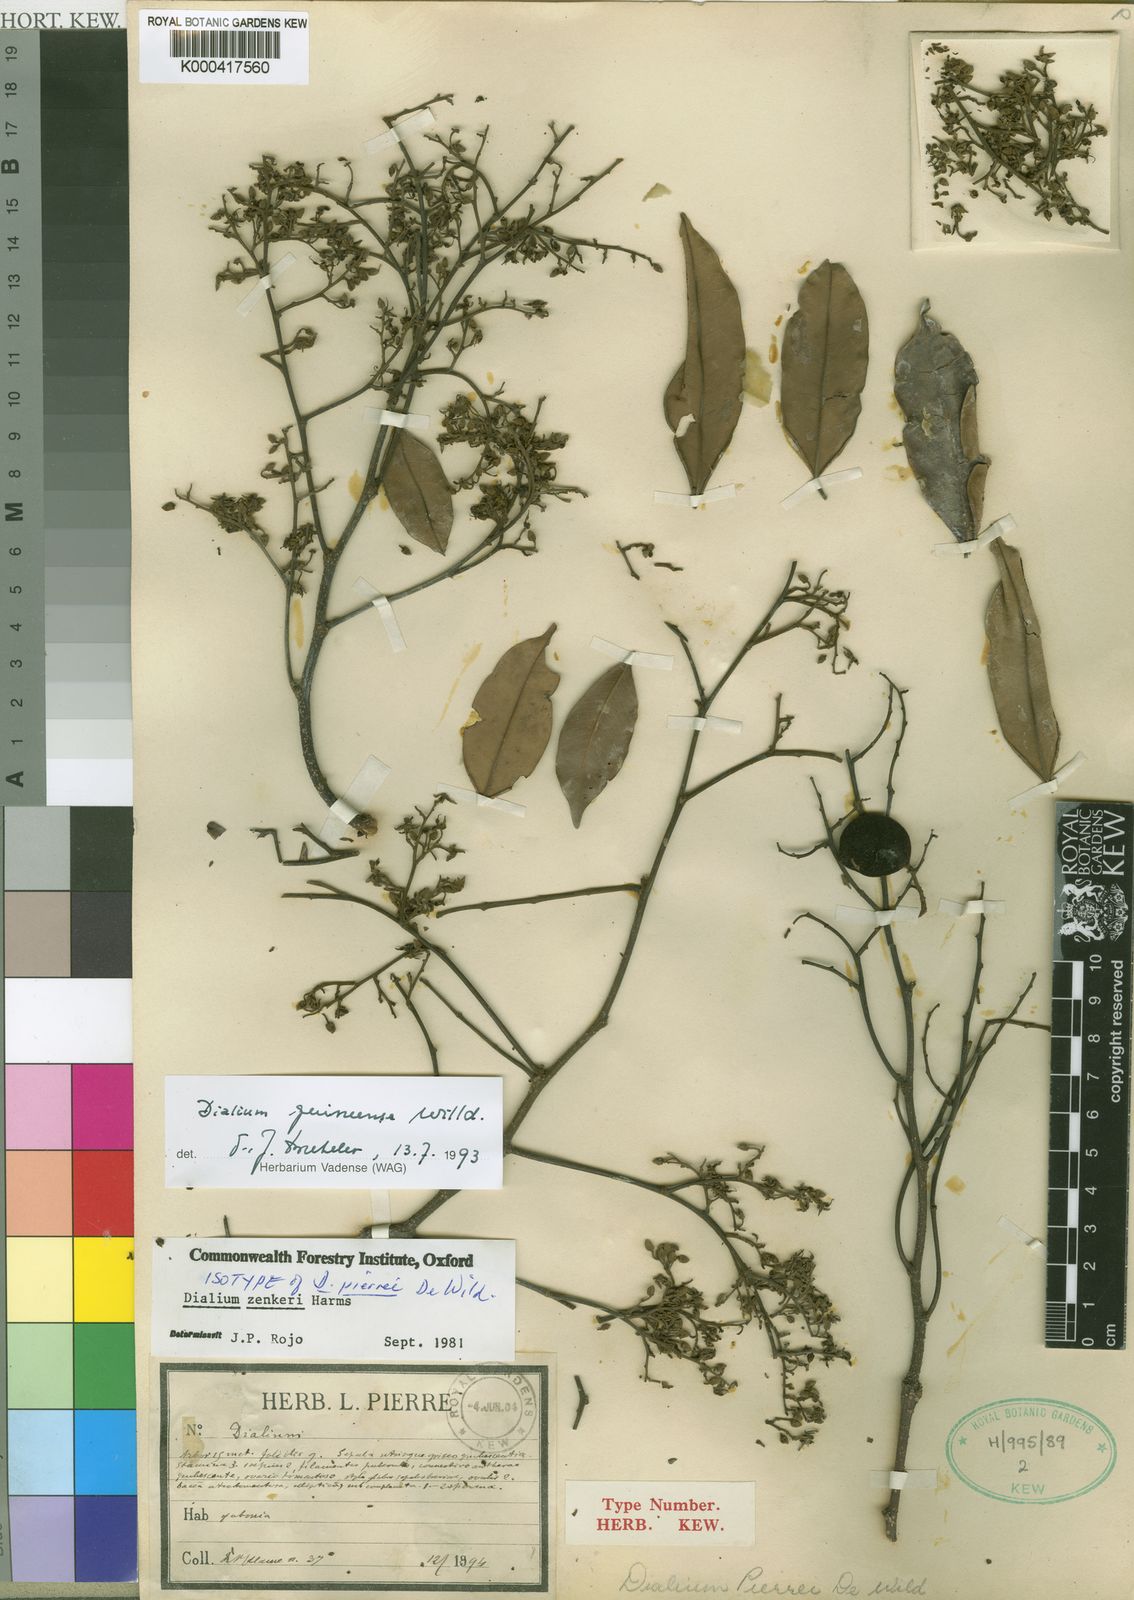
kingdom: Plantae
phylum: Tracheophyta
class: Magnoliopsida
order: Fabales
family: Fabaceae
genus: Dialium
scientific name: Dialium guineense
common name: Sierra leone-tamarind
